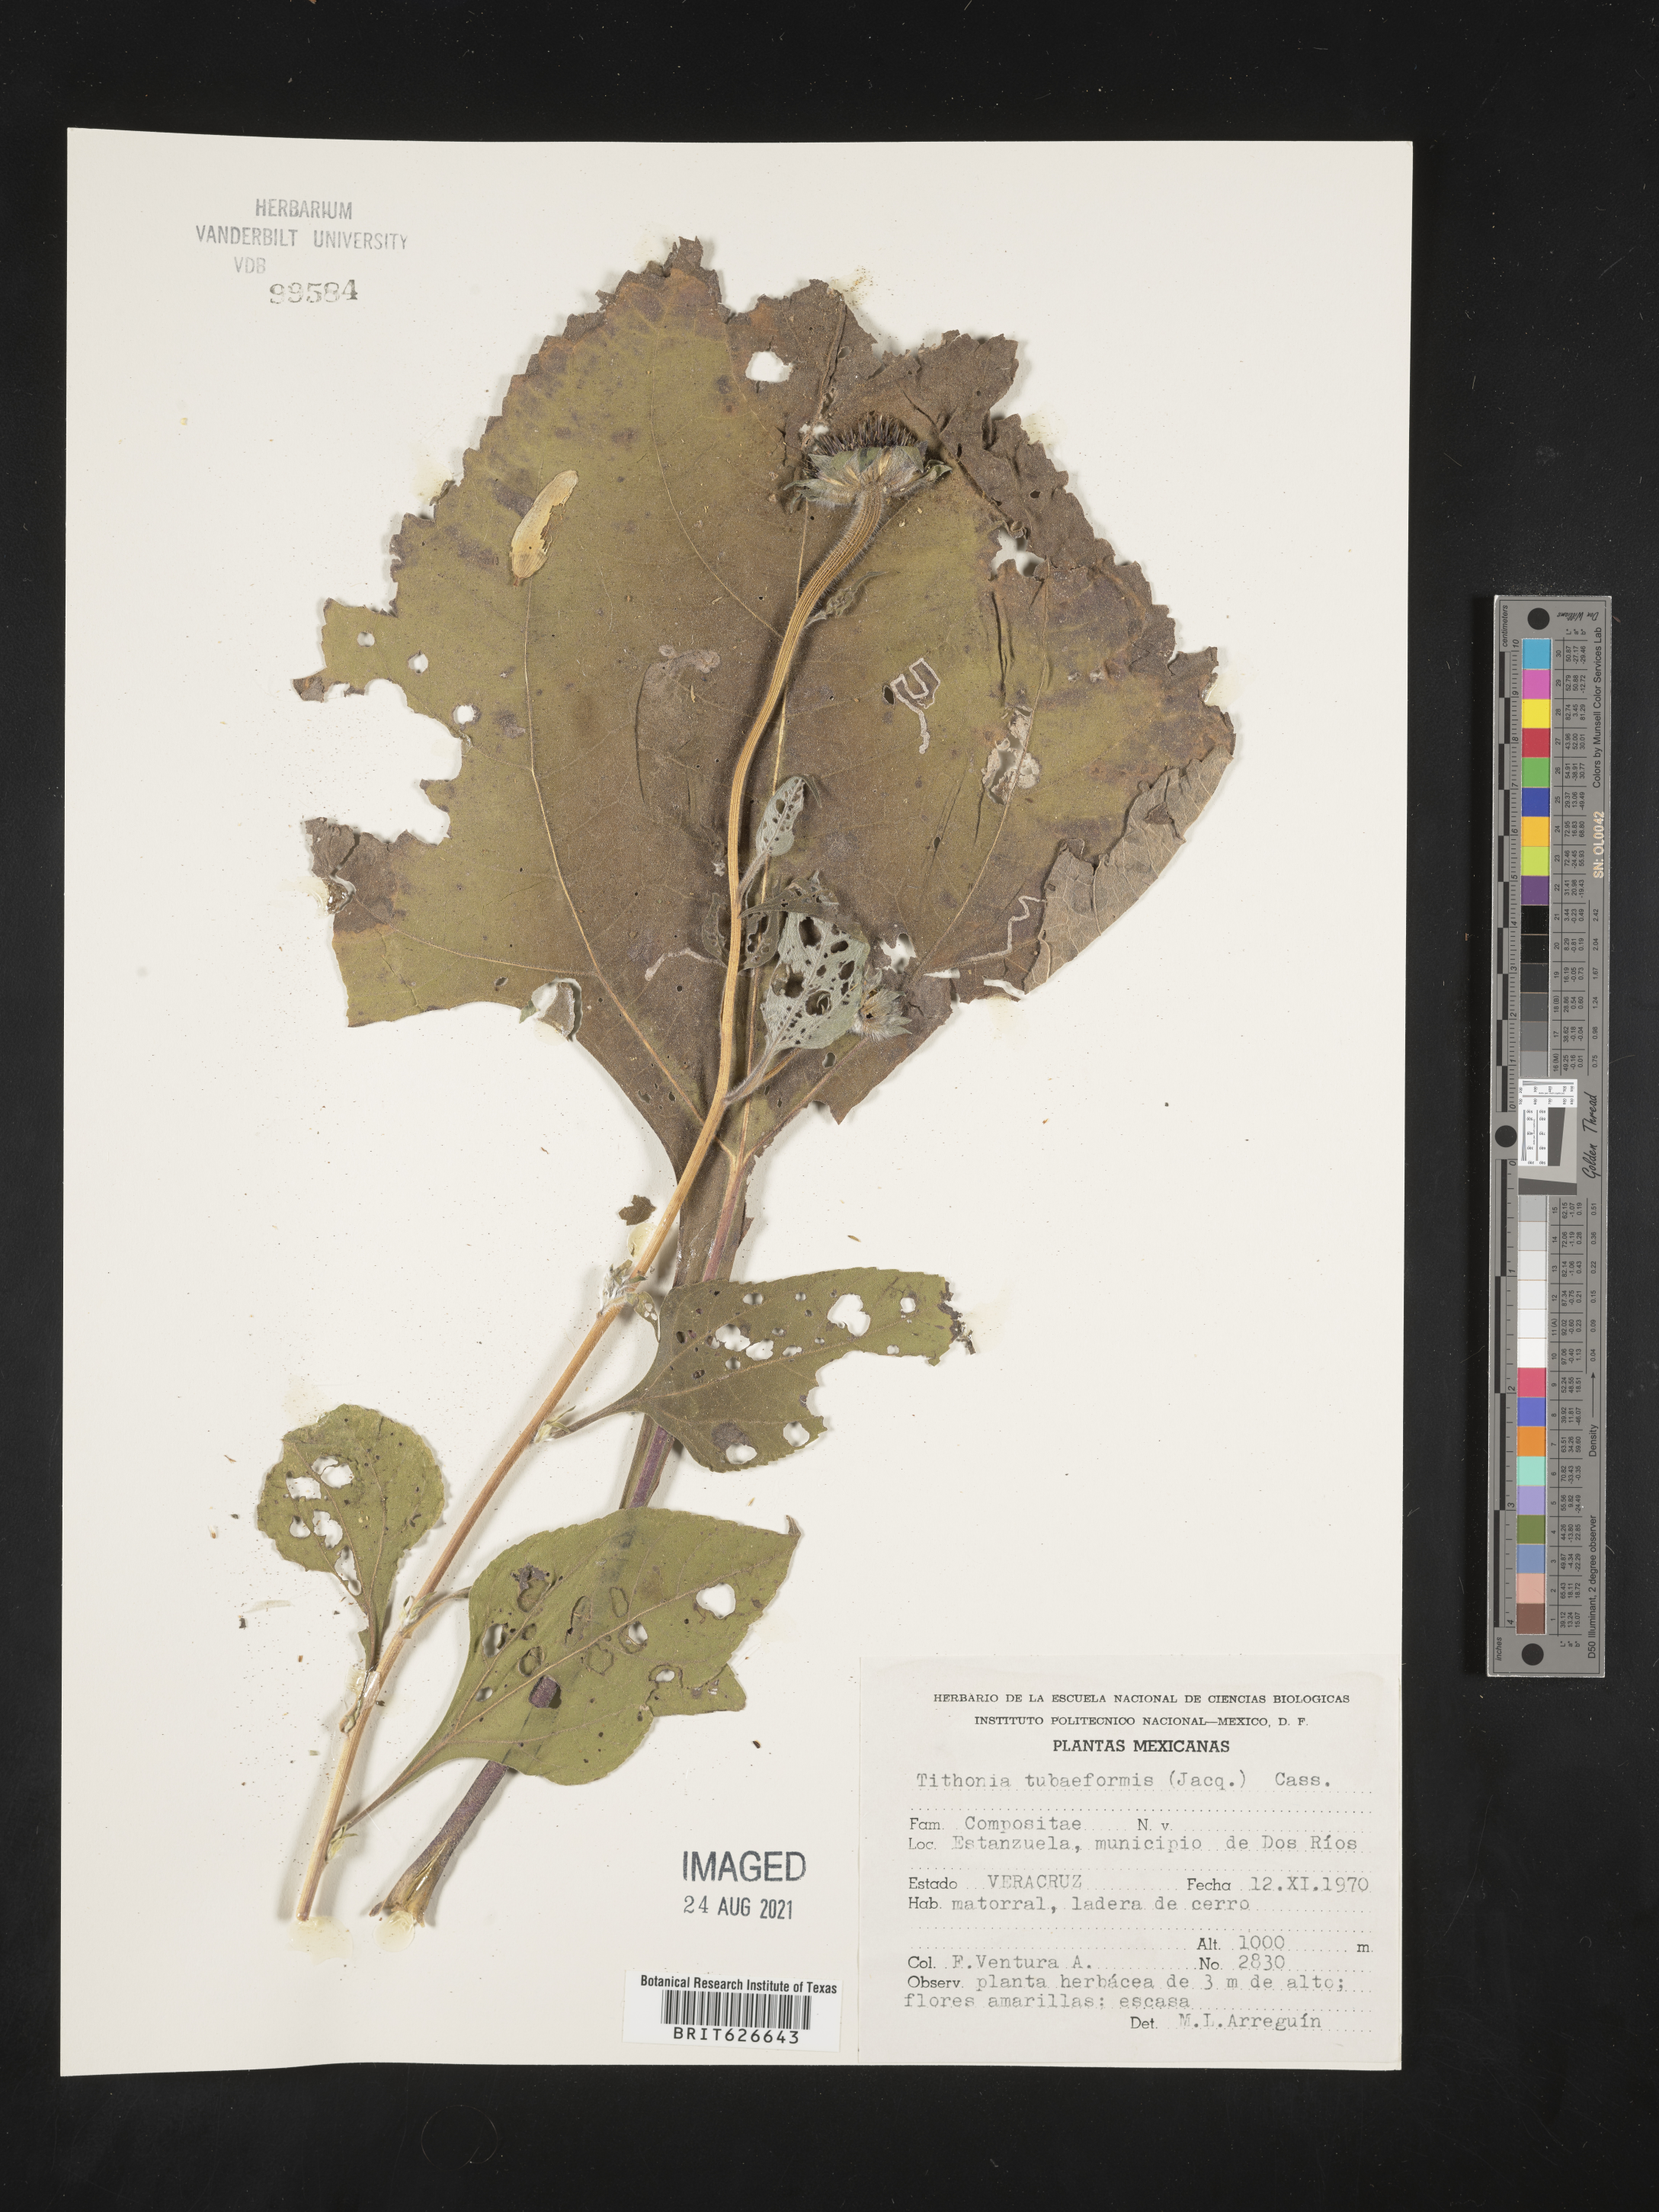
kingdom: Plantae
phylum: Tracheophyta
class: Magnoliopsida
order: Asterales
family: Asteraceae
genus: Tithonia
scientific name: Tithonia
